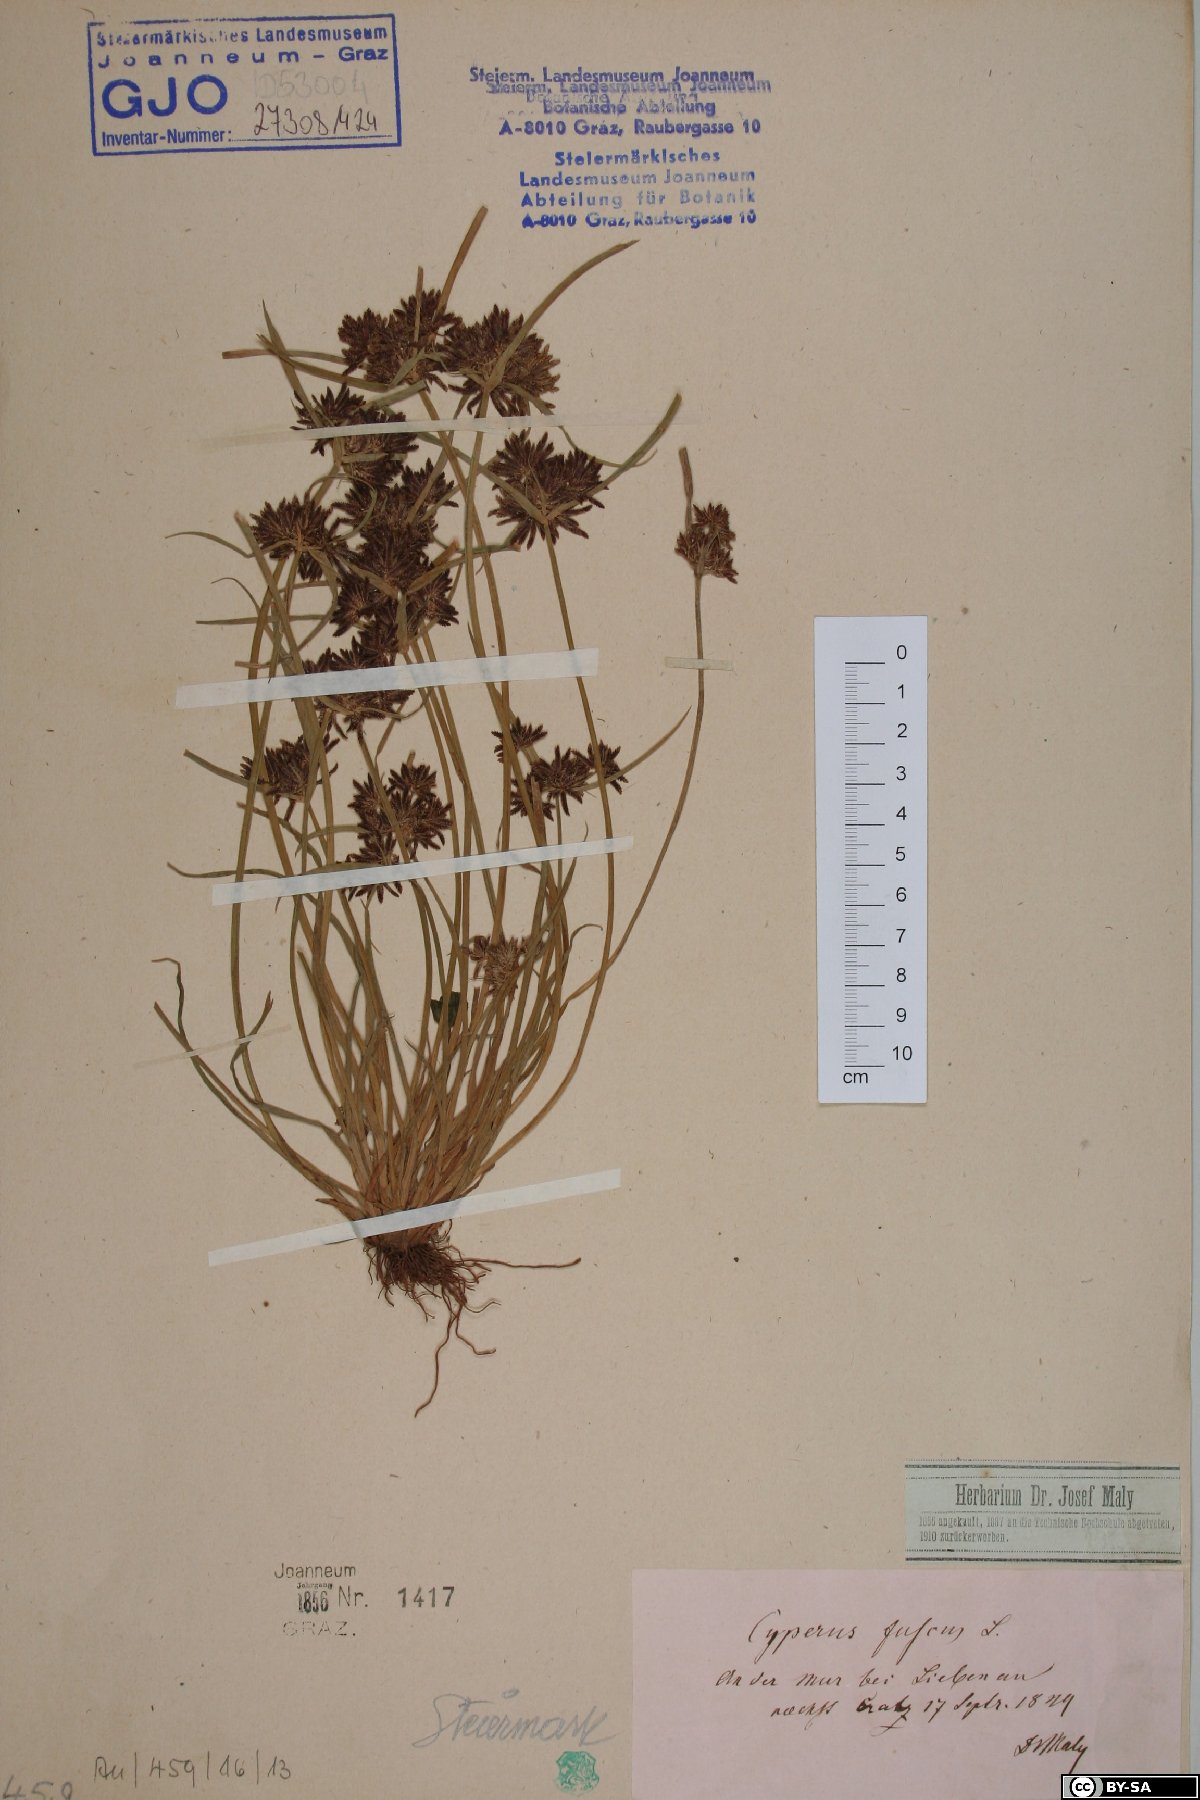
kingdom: Plantae
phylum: Tracheophyta
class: Liliopsida
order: Poales
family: Cyperaceae
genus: Cyperus
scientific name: Cyperus fuscus
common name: Brown galingale
